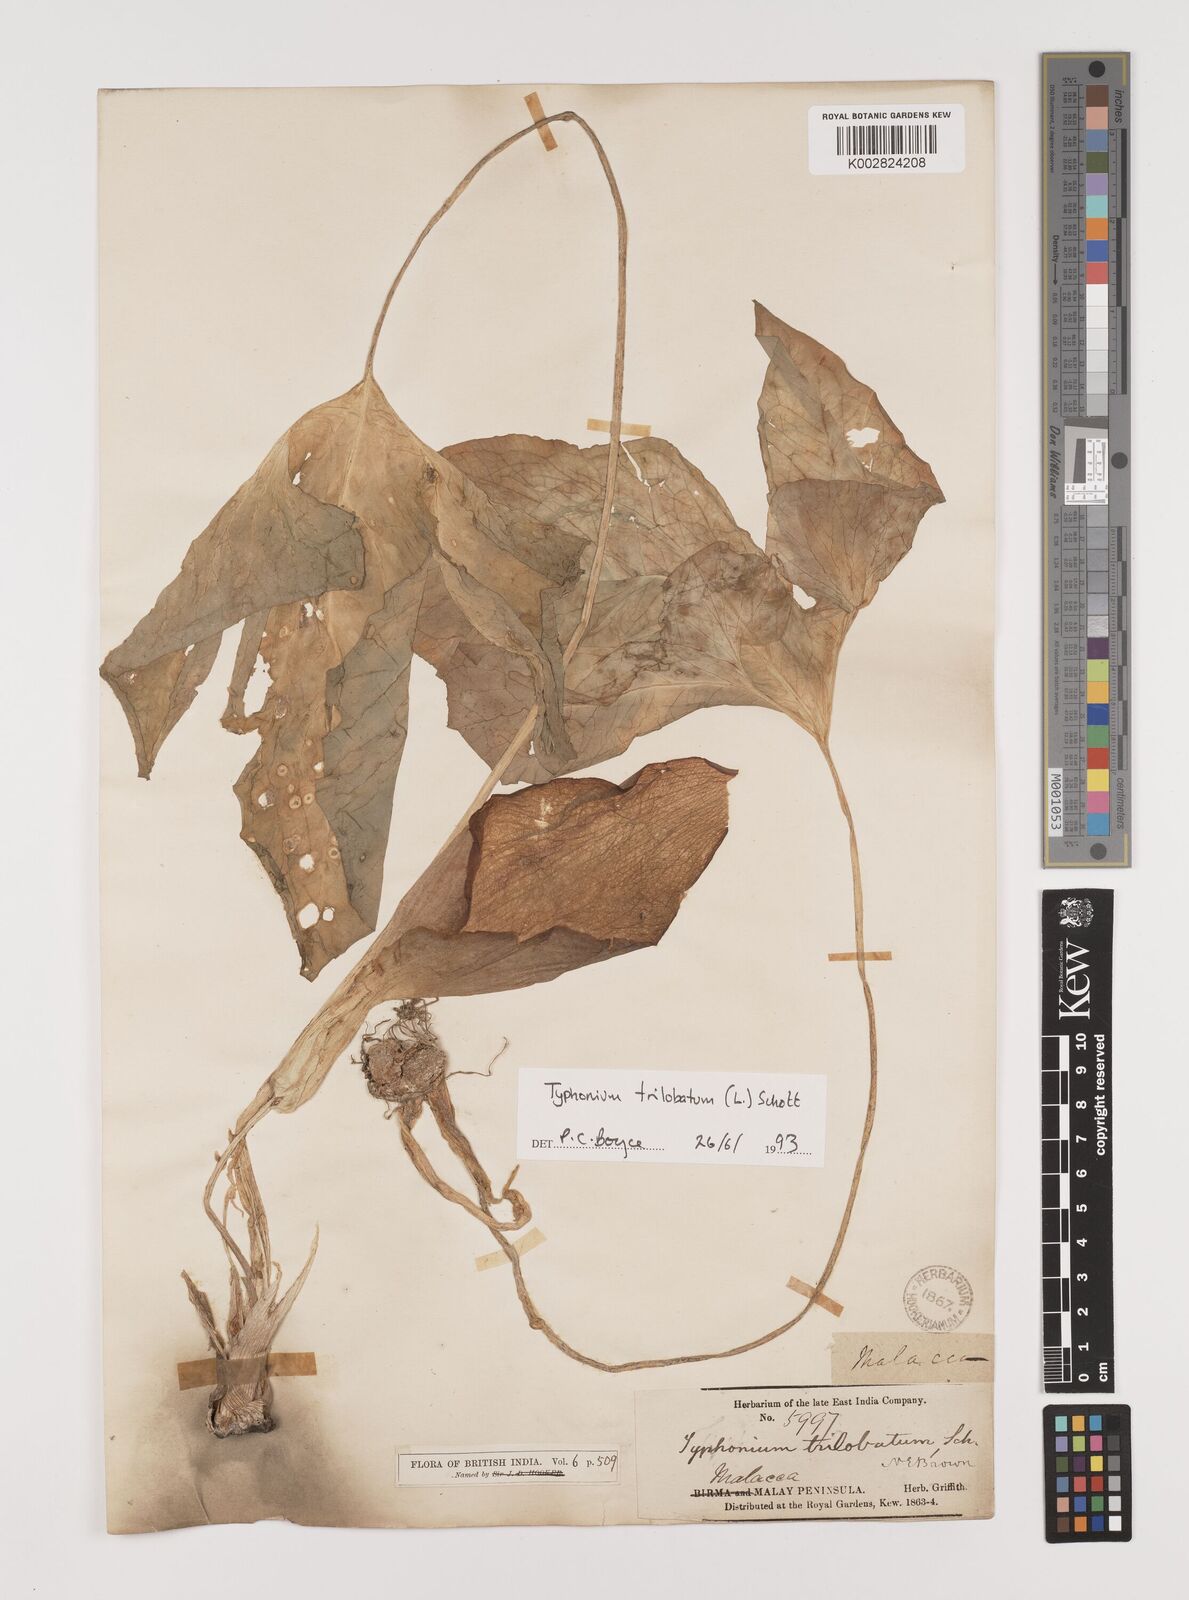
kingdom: Plantae
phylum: Tracheophyta
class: Liliopsida
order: Alismatales
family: Araceae
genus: Typhonium
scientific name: Typhonium trilobatum
